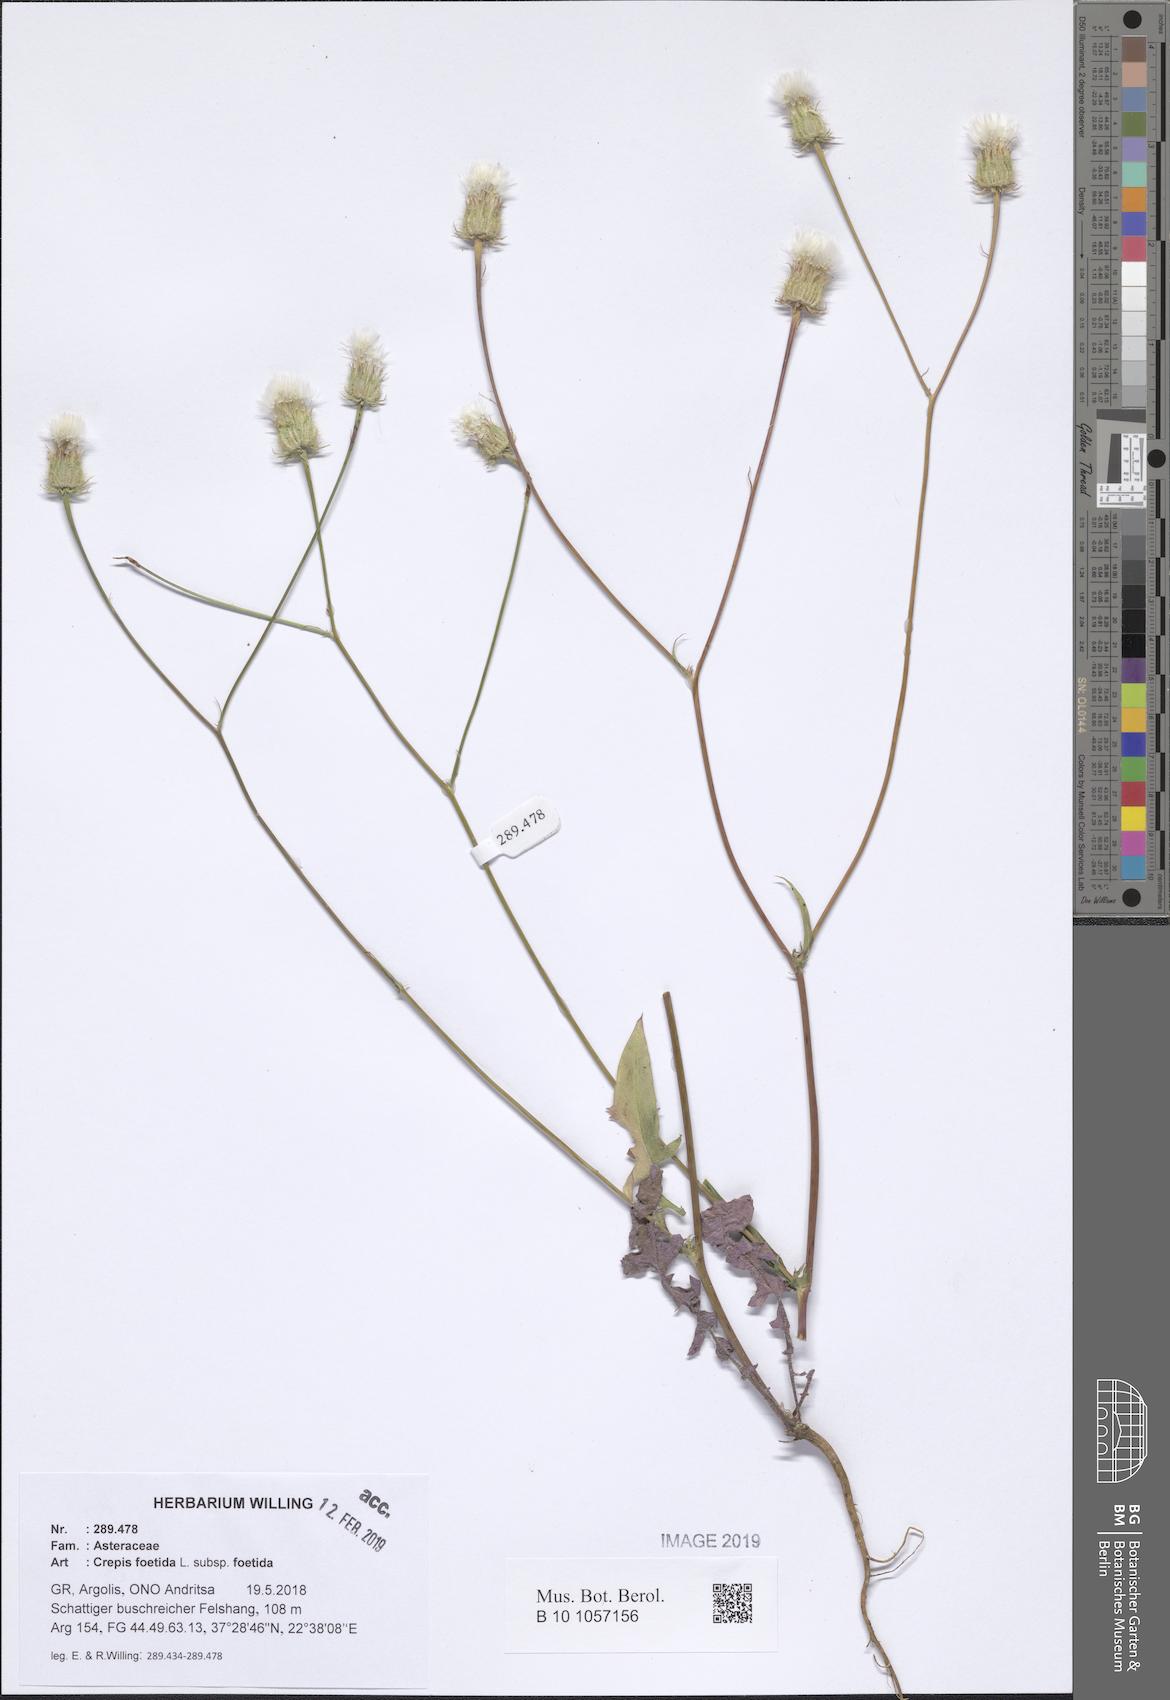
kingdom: Plantae
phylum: Tracheophyta
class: Magnoliopsida
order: Asterales
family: Asteraceae
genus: Crepis
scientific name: Crepis foetida
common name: Stinking hawk's-beard
